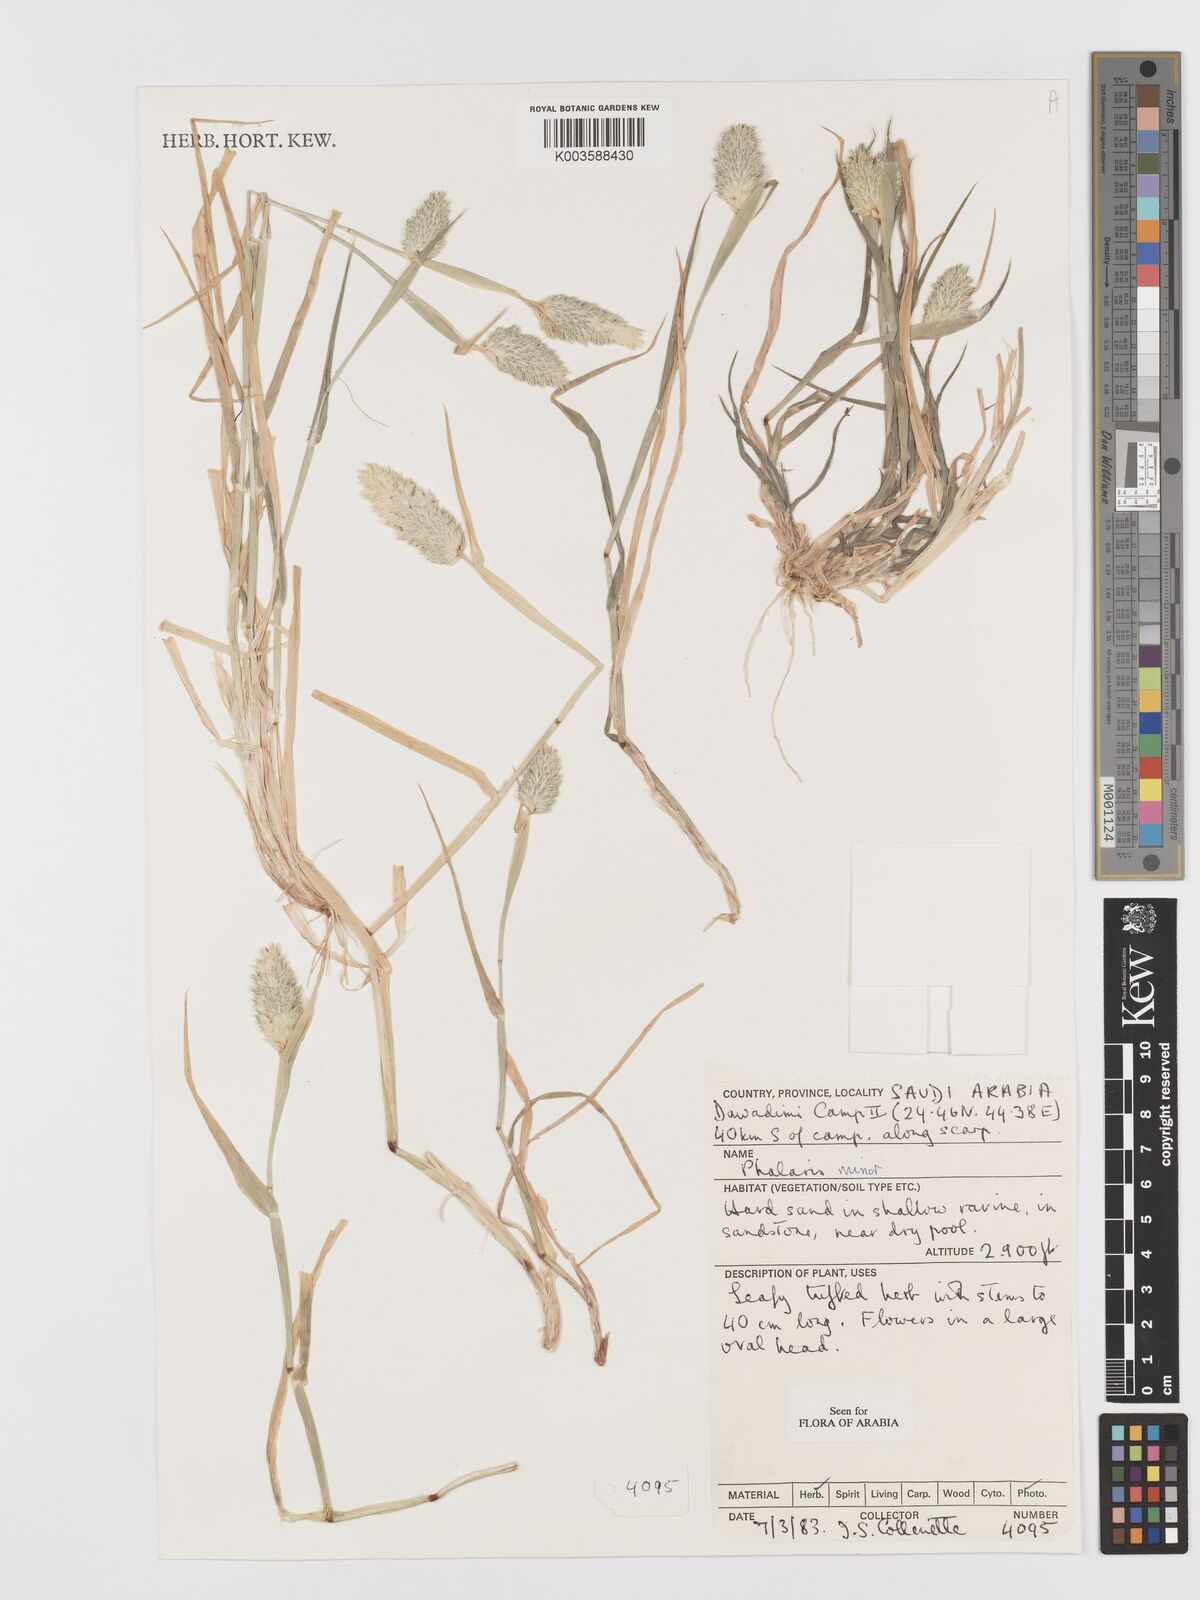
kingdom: Plantae
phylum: Tracheophyta
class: Liliopsida
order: Poales
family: Poaceae
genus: Phalaris
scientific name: Phalaris minor
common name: Littleseed canarygrass
